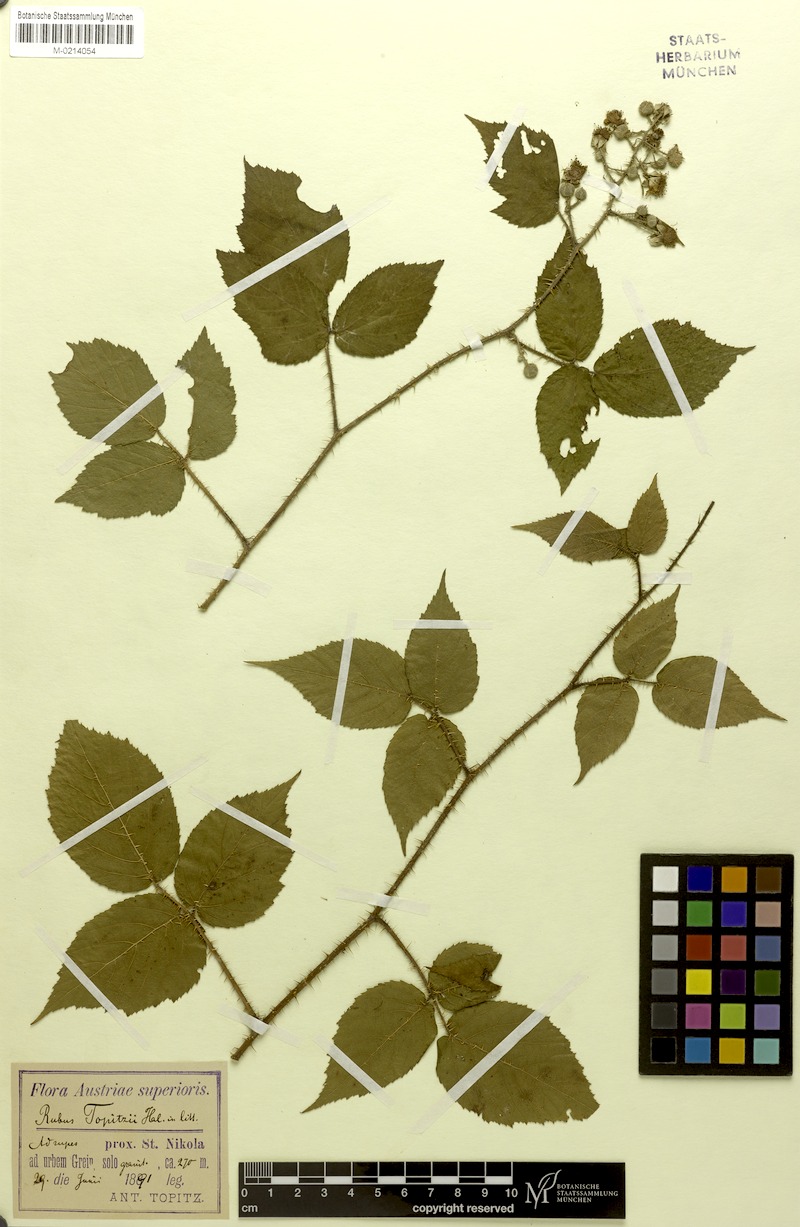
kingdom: Plantae
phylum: Tracheophyta
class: Magnoliopsida
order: Rosales
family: Rosaceae
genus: Rubus
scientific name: Rubus topitzii
